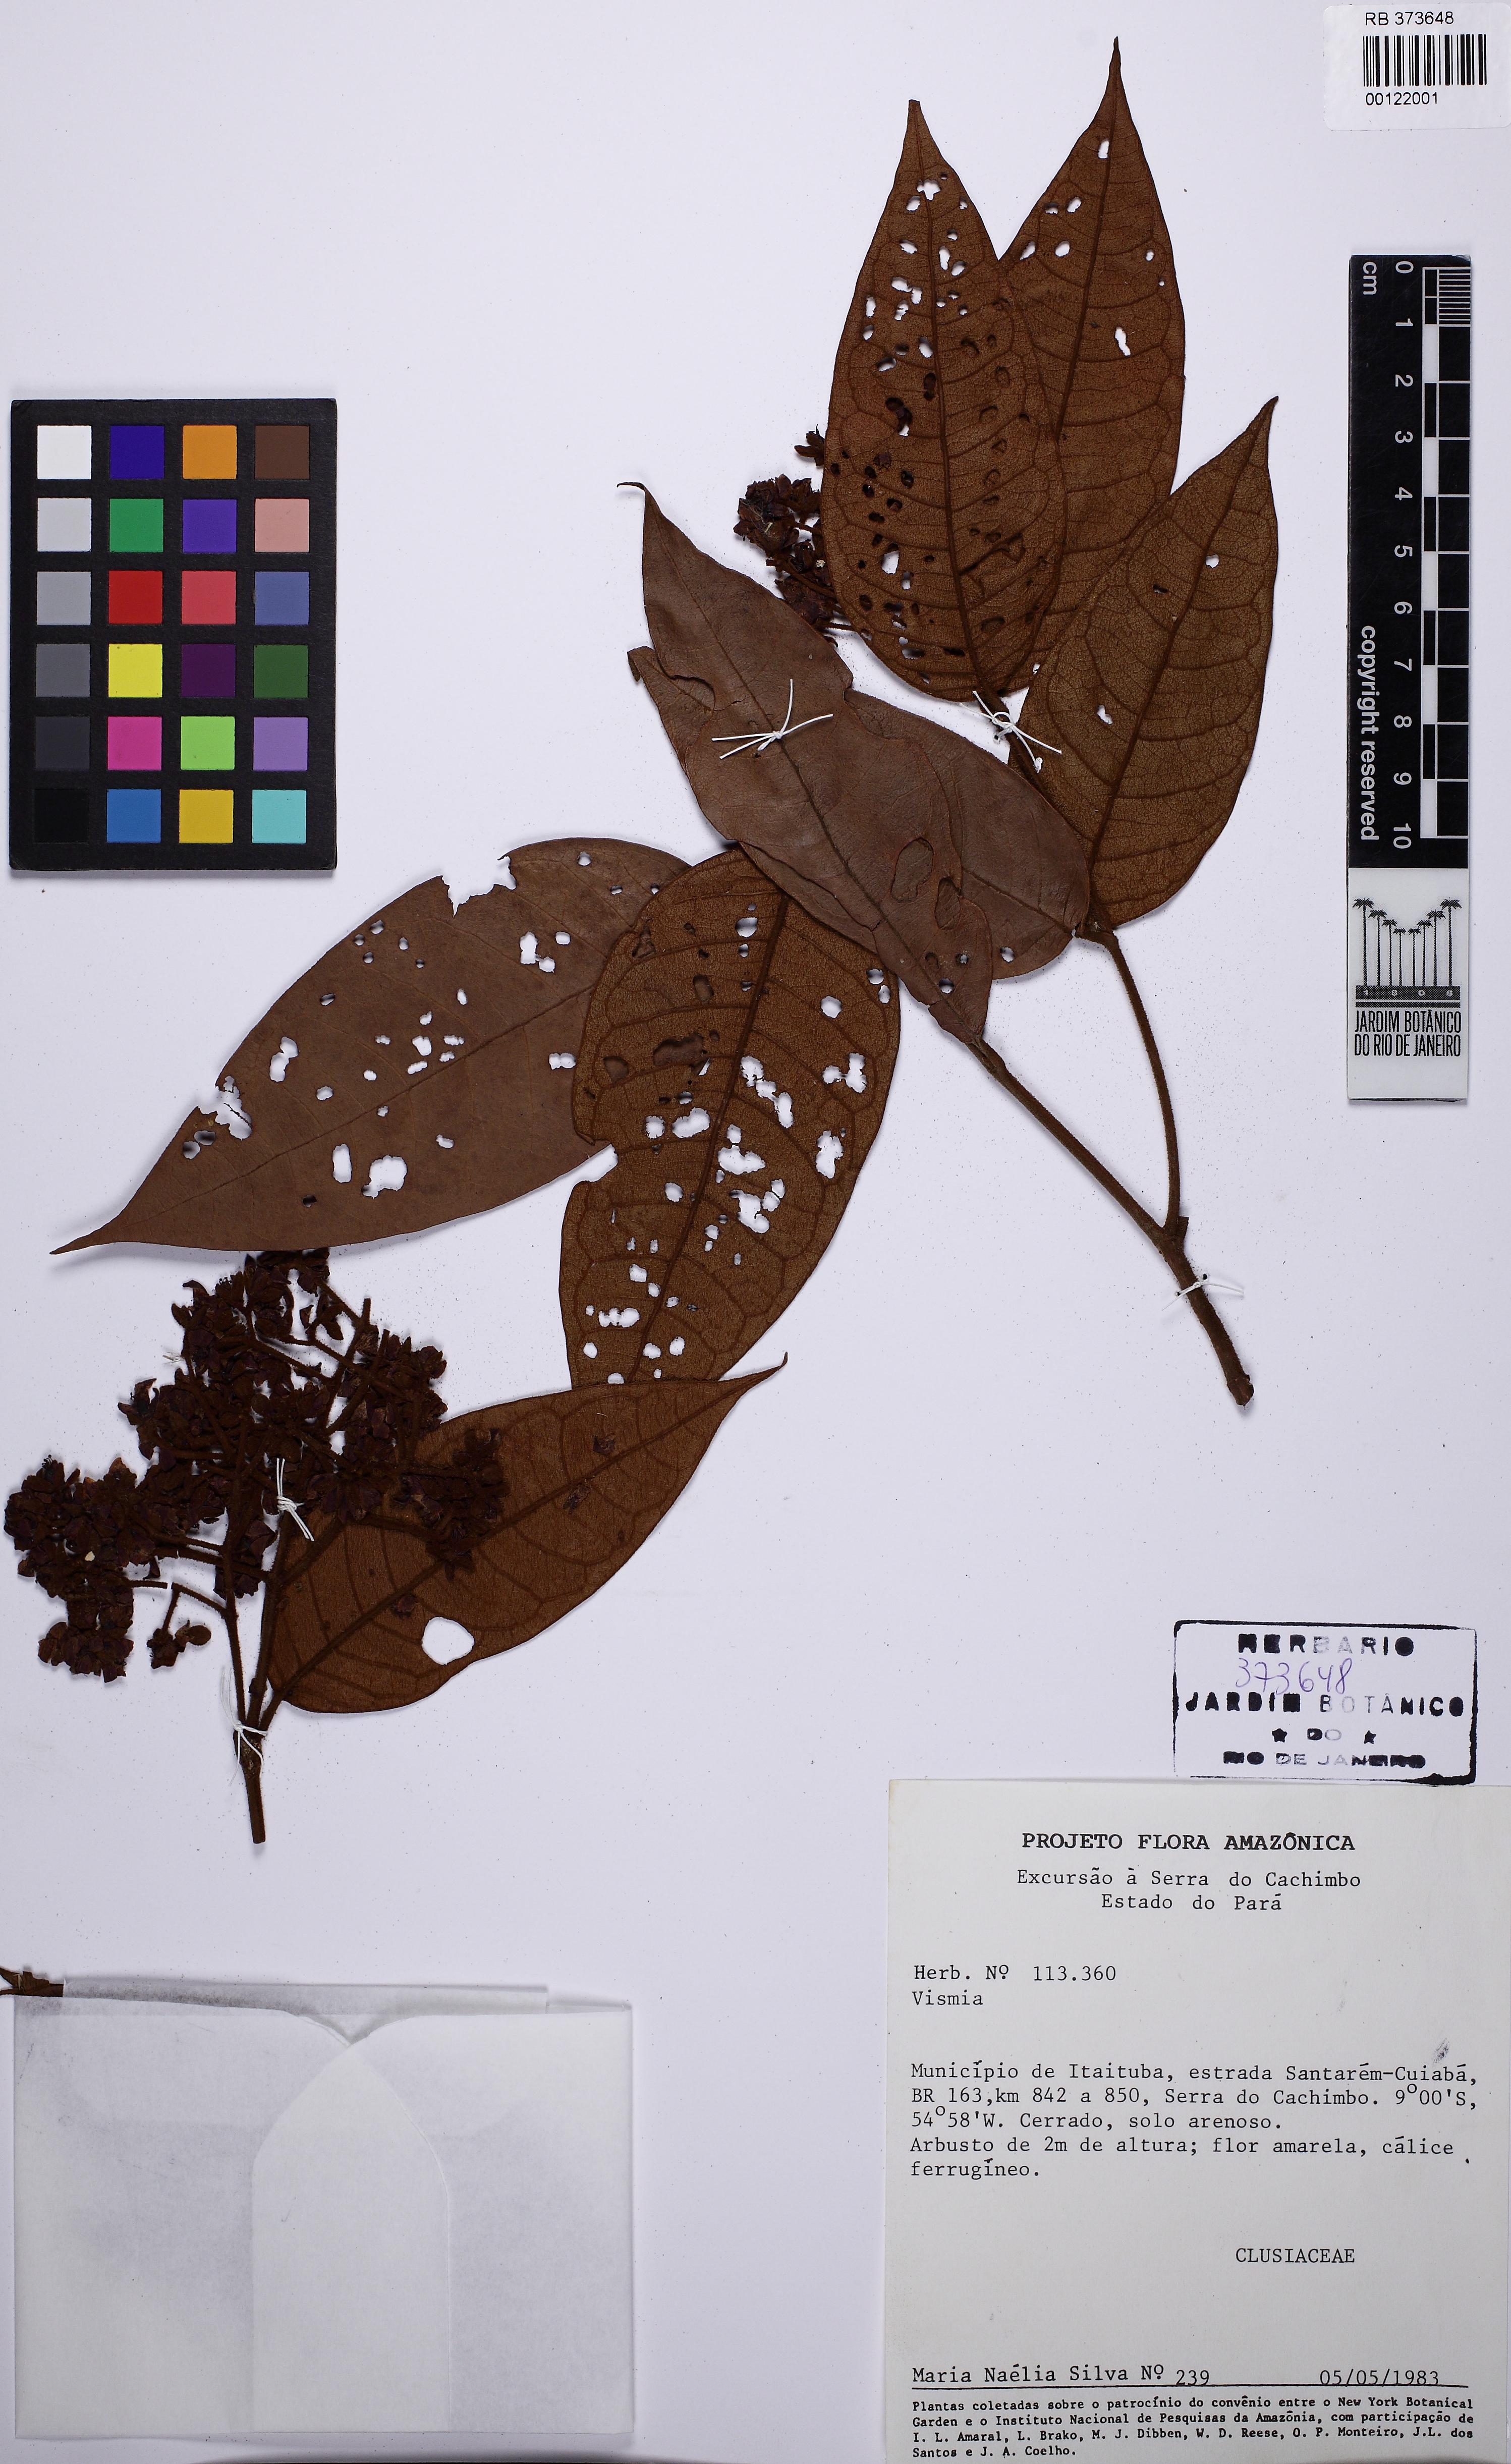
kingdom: Plantae
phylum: Tracheophyta
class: Magnoliopsida
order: Malpighiales
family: Hypericaceae
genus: Vismia
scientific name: Vismia bemerguii
